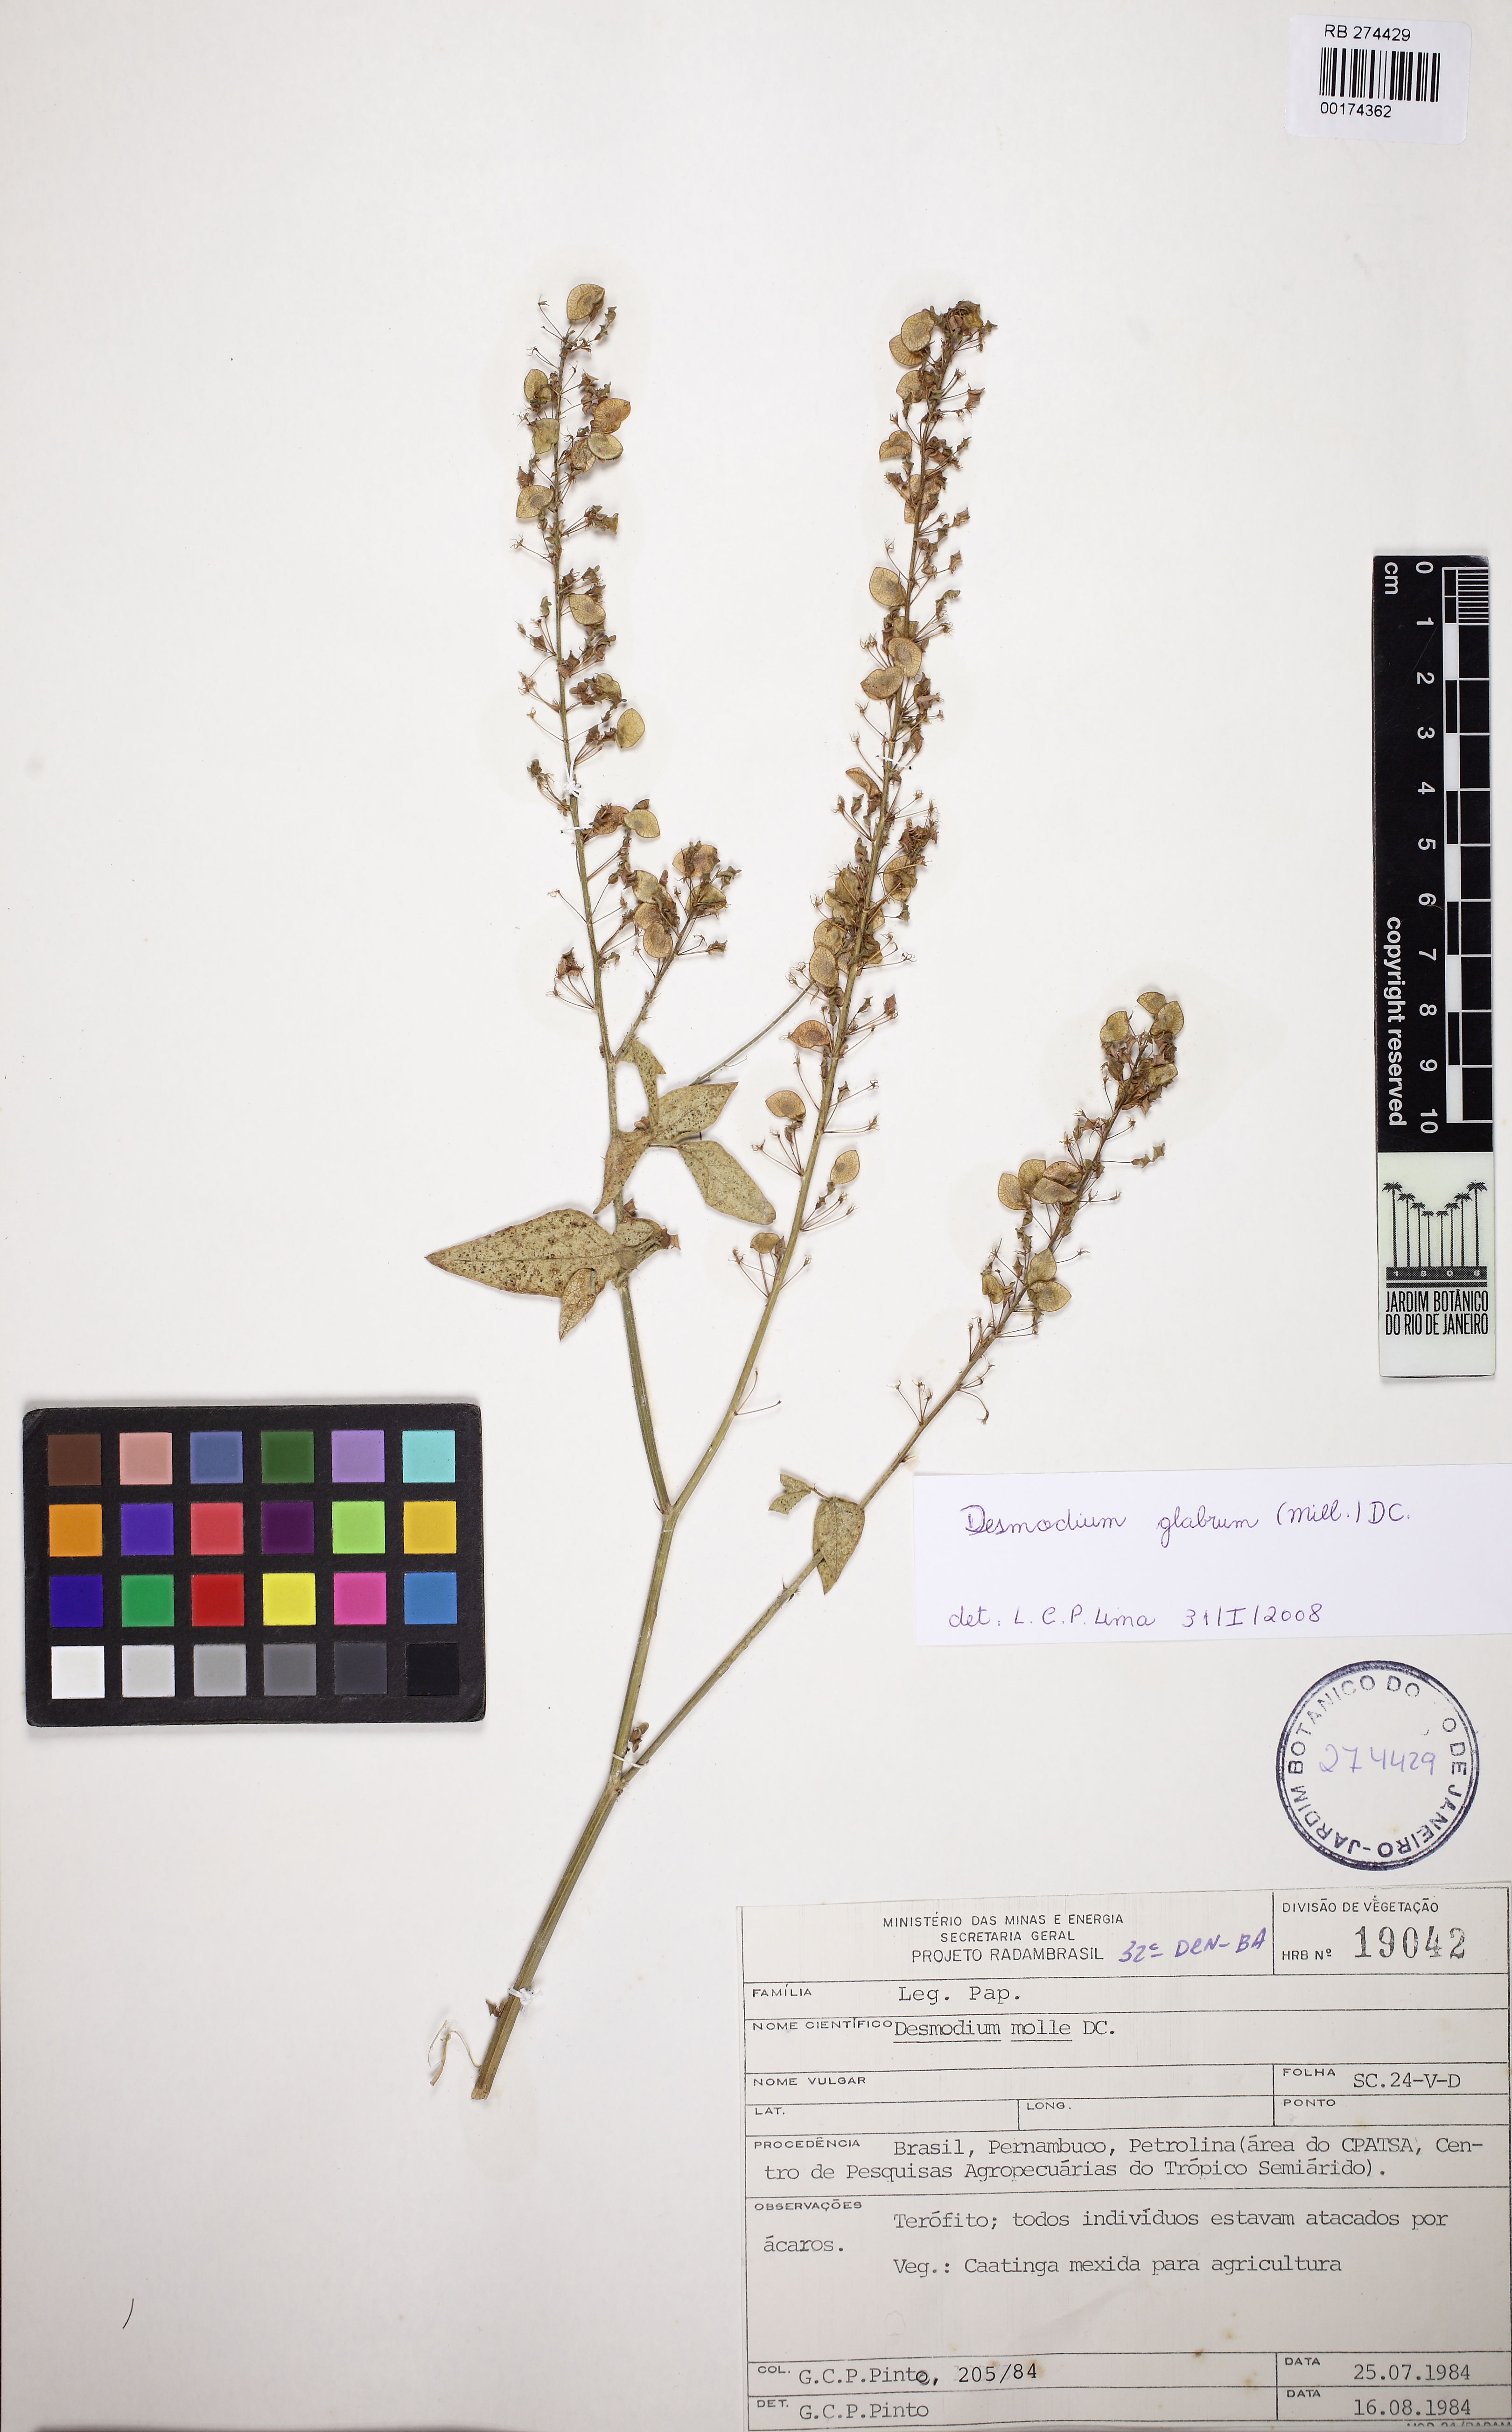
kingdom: Plantae
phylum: Tracheophyta
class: Magnoliopsida
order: Fabales
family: Fabaceae
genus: Desmodium
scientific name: Desmodium glabrum
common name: Zarzabacoa dulce
